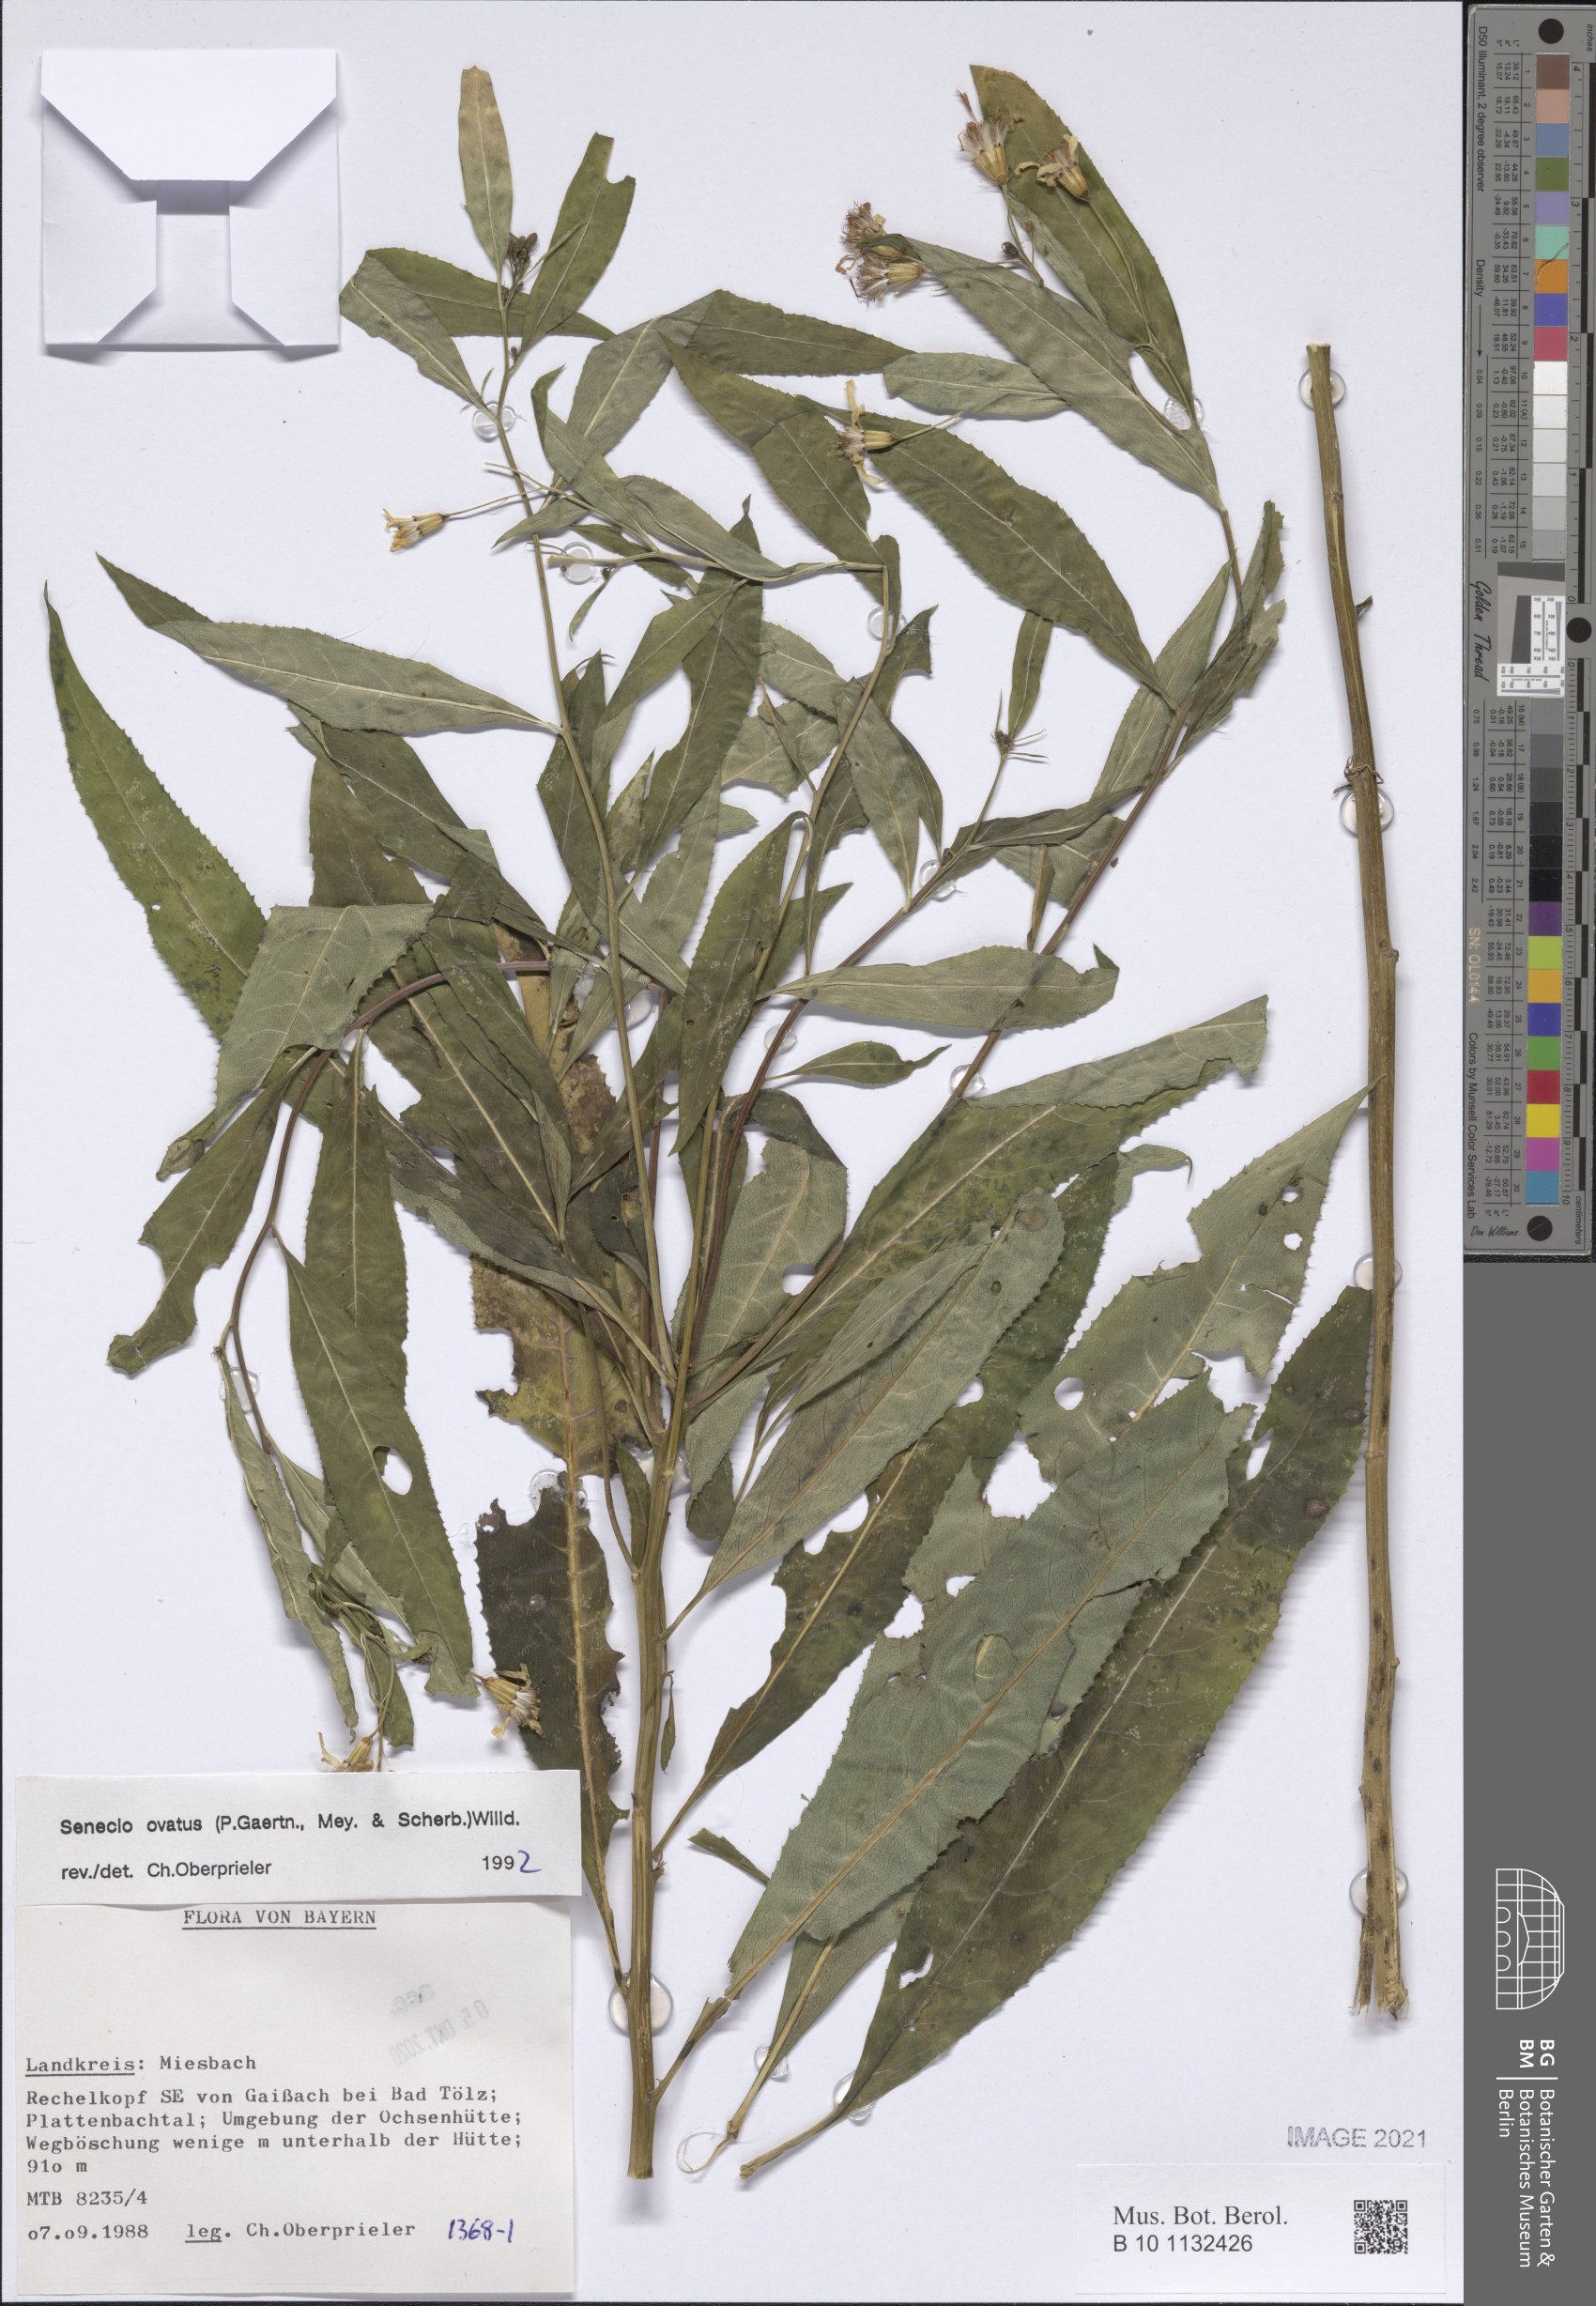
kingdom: Plantae
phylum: Tracheophyta
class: Magnoliopsida
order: Asterales
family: Asteraceae
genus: Senecio
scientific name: Senecio ovatus
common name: Wood ragwort
